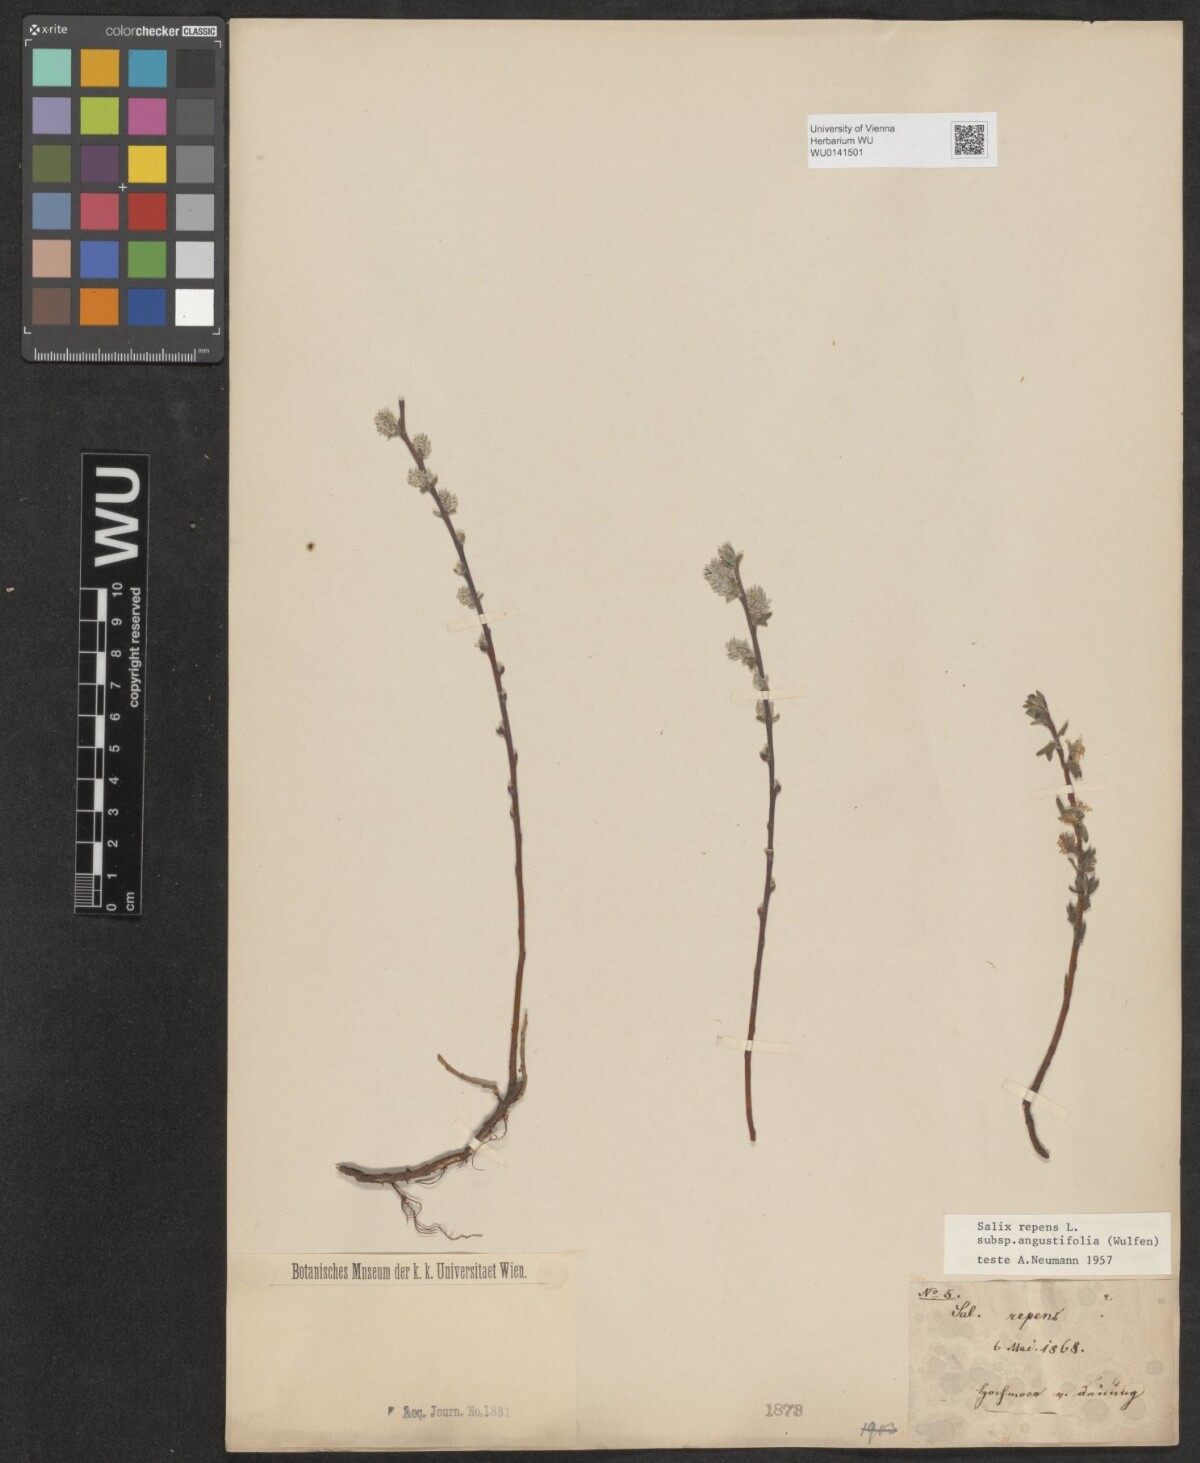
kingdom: Plantae
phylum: Tracheophyta
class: Magnoliopsida
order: Malpighiales
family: Salicaceae
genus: Salix
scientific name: Salix rosmarinifolia
